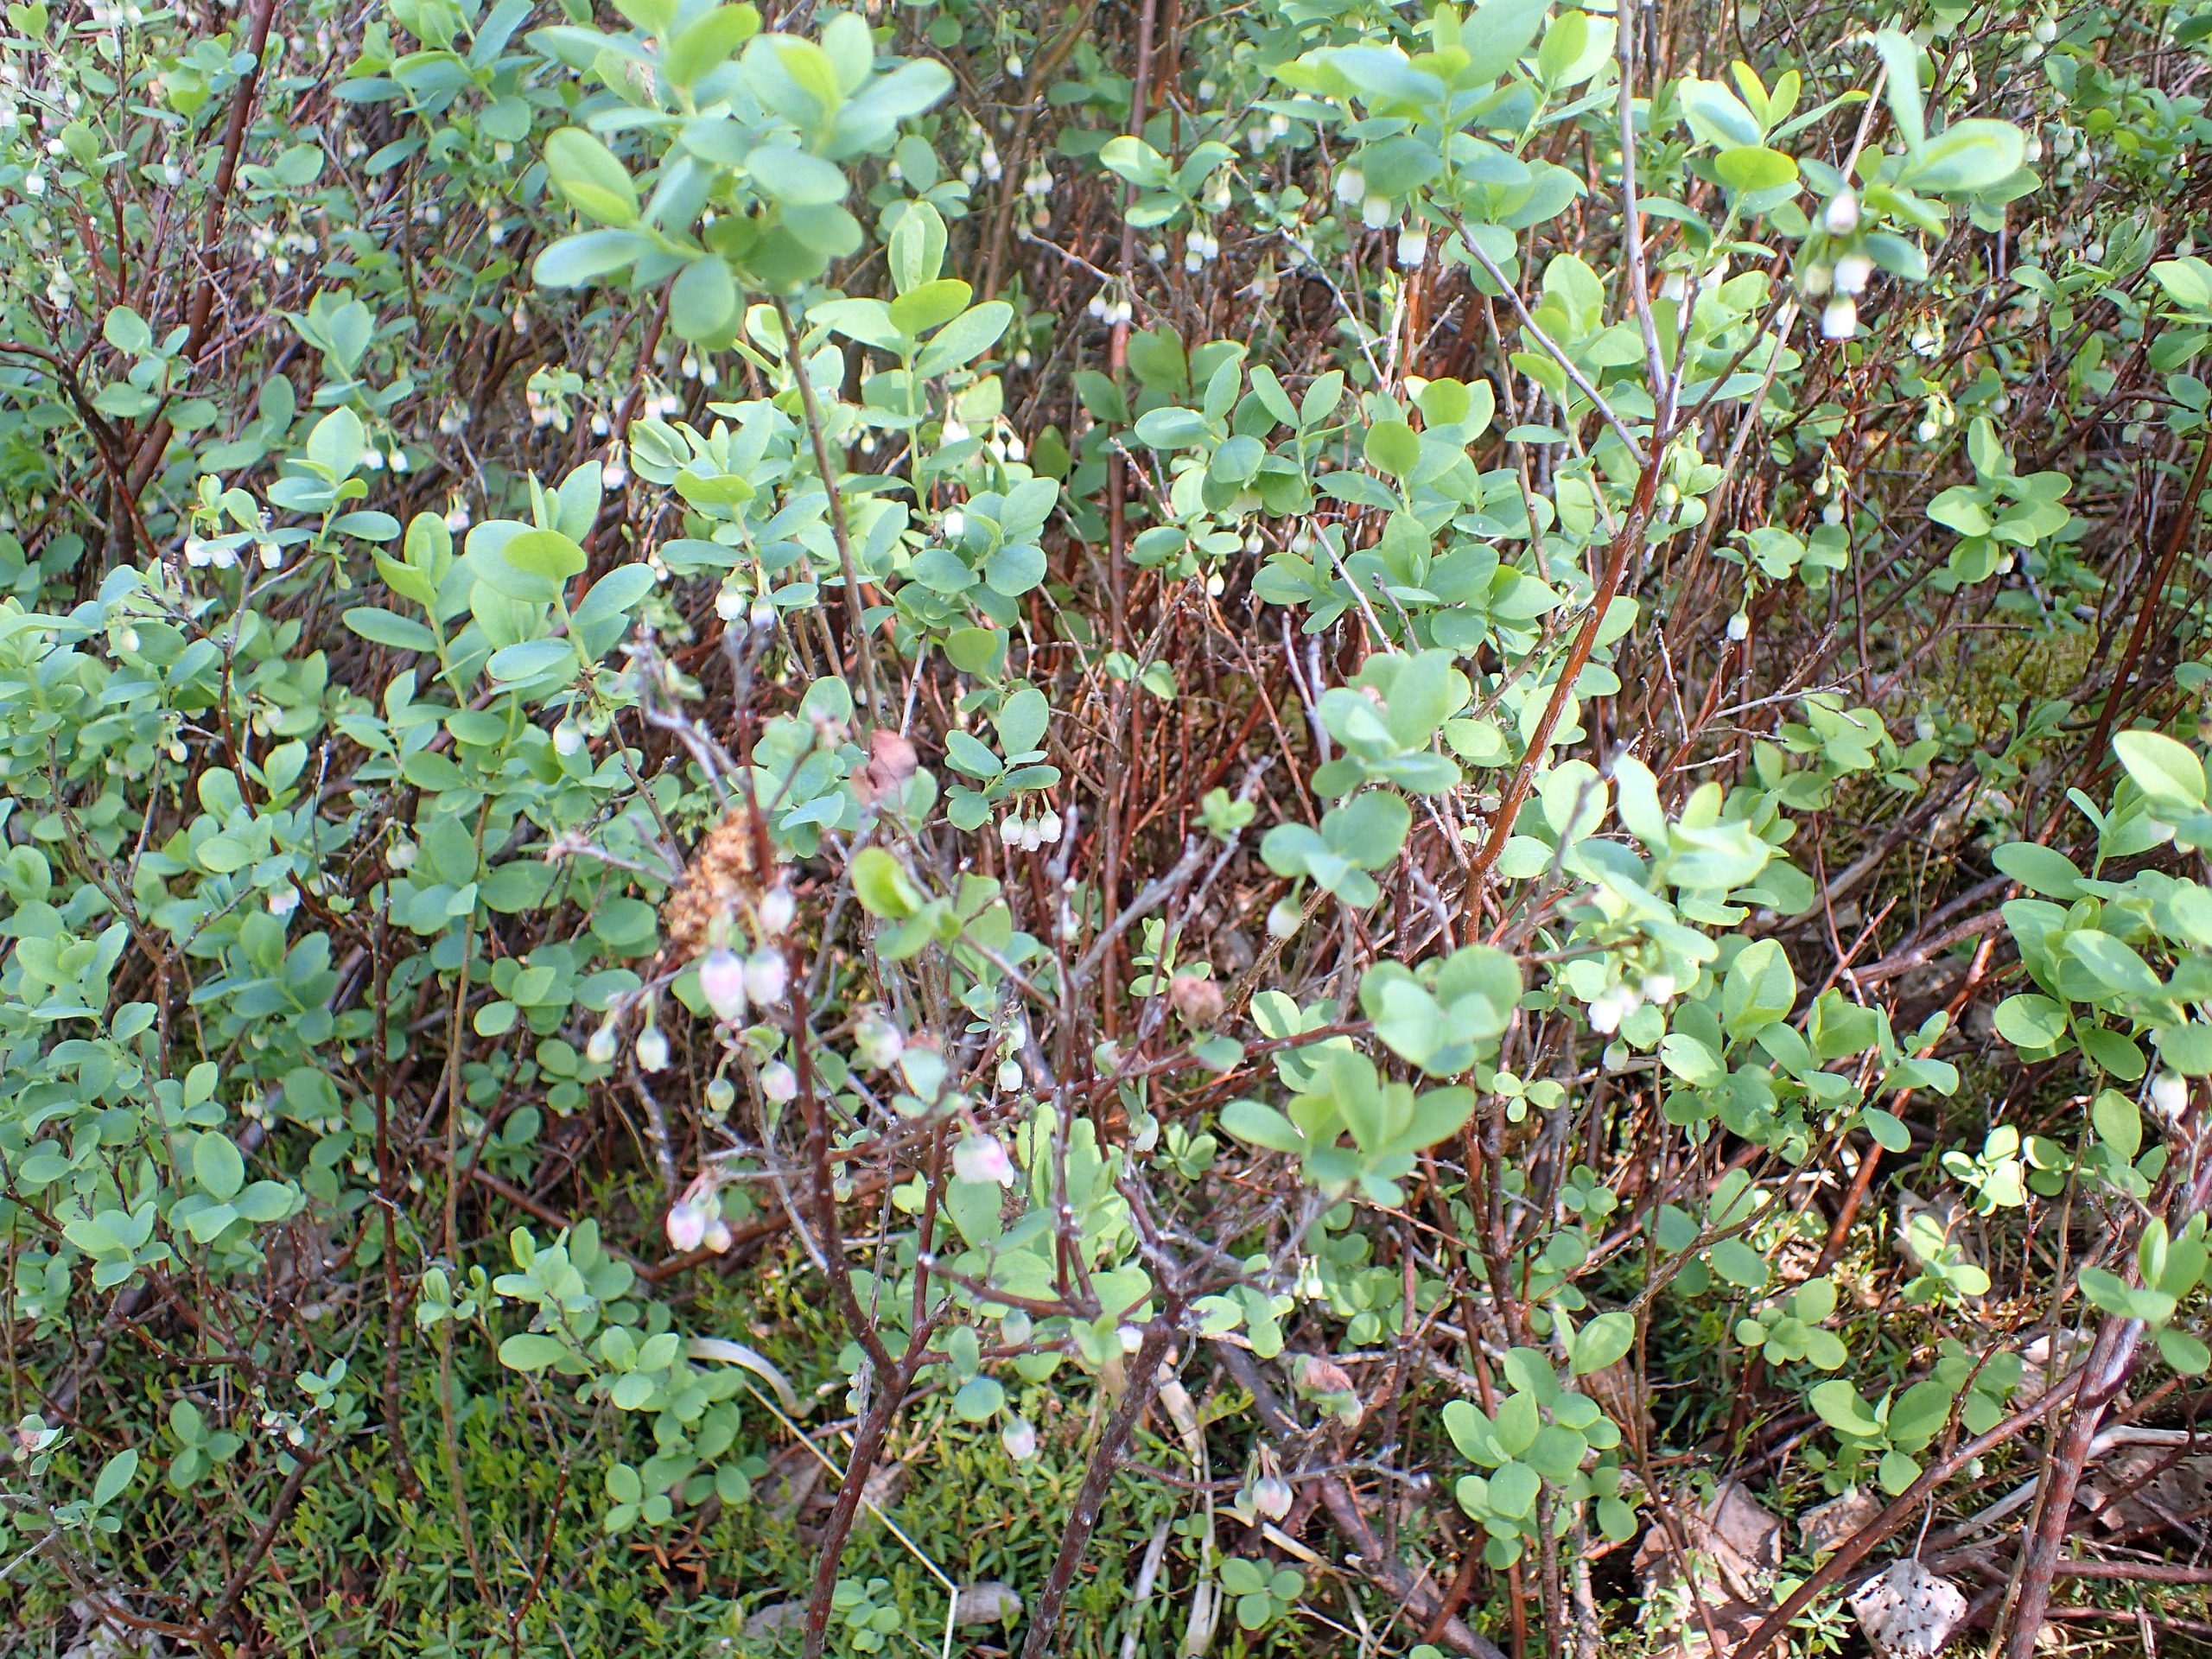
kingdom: Plantae
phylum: Tracheophyta
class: Magnoliopsida
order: Ericales
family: Ericaceae
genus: Vaccinium
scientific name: Vaccinium uliginosum
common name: Mose-bølle
